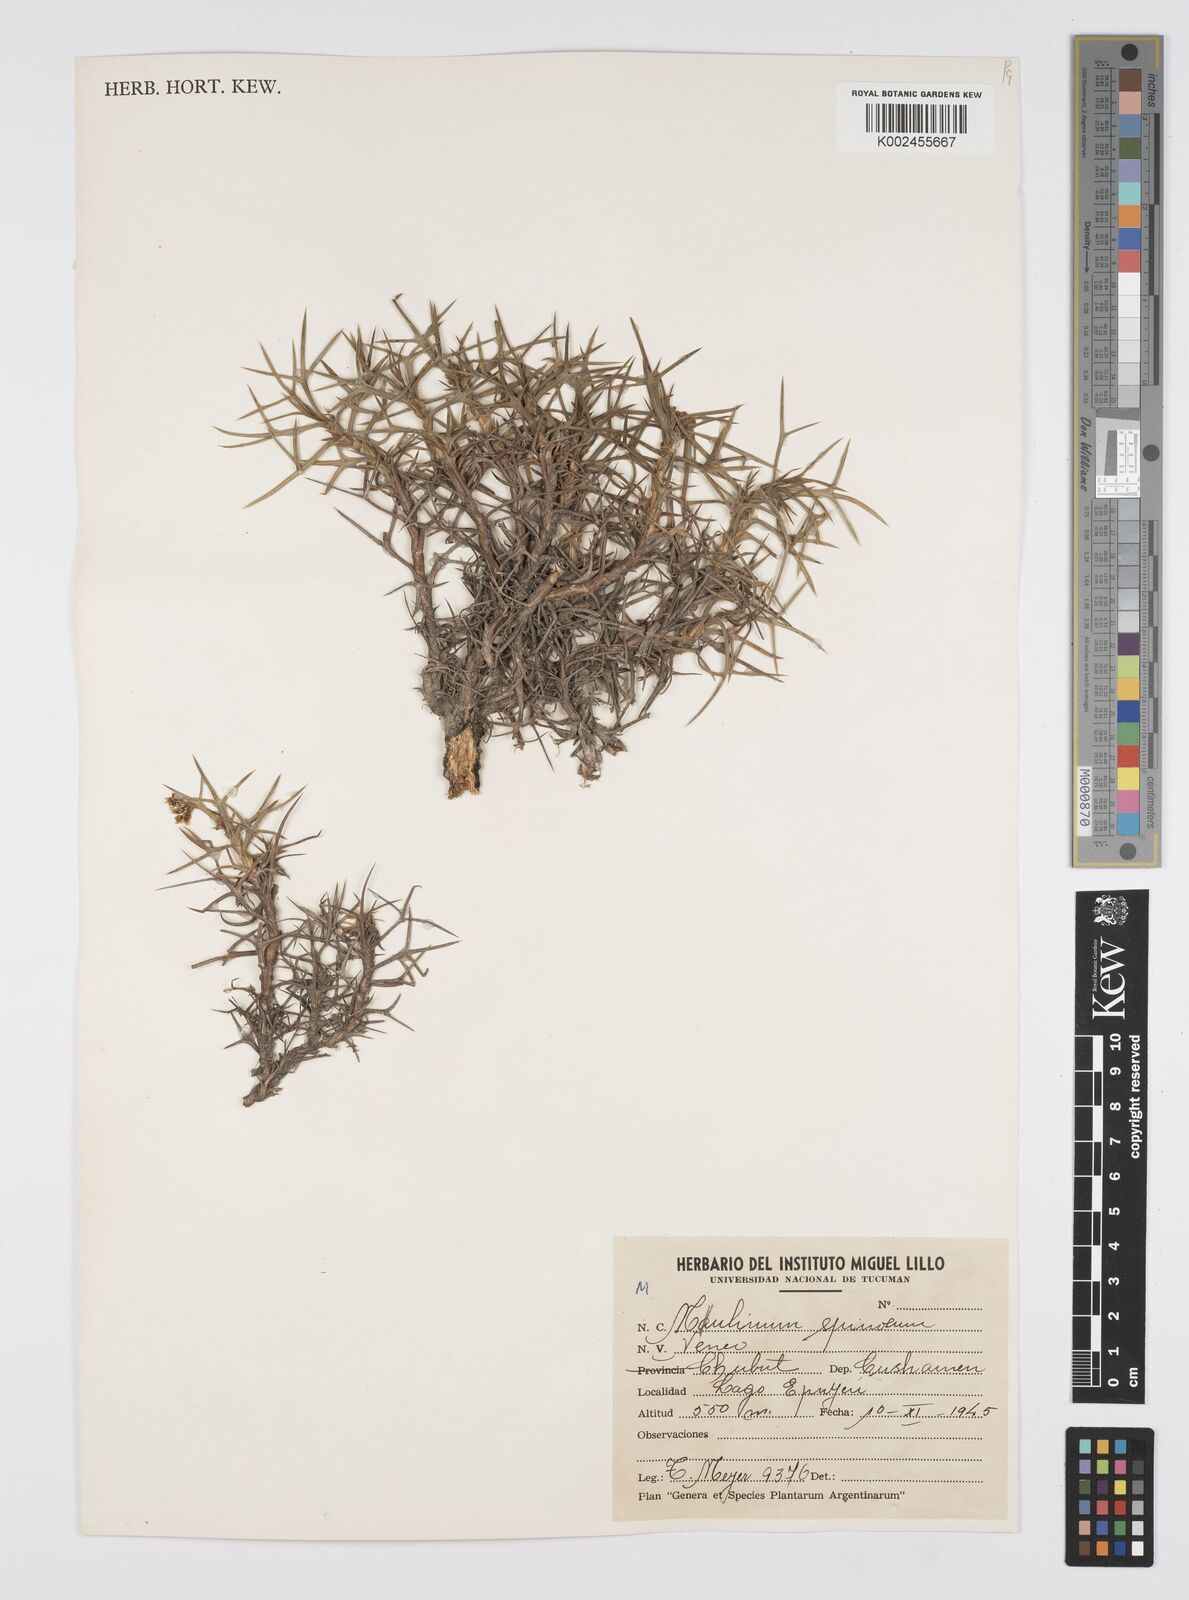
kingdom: Plantae
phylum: Tracheophyta
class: Magnoliopsida
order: Apiales
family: Apiaceae
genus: Azorella
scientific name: Azorella prolifera
